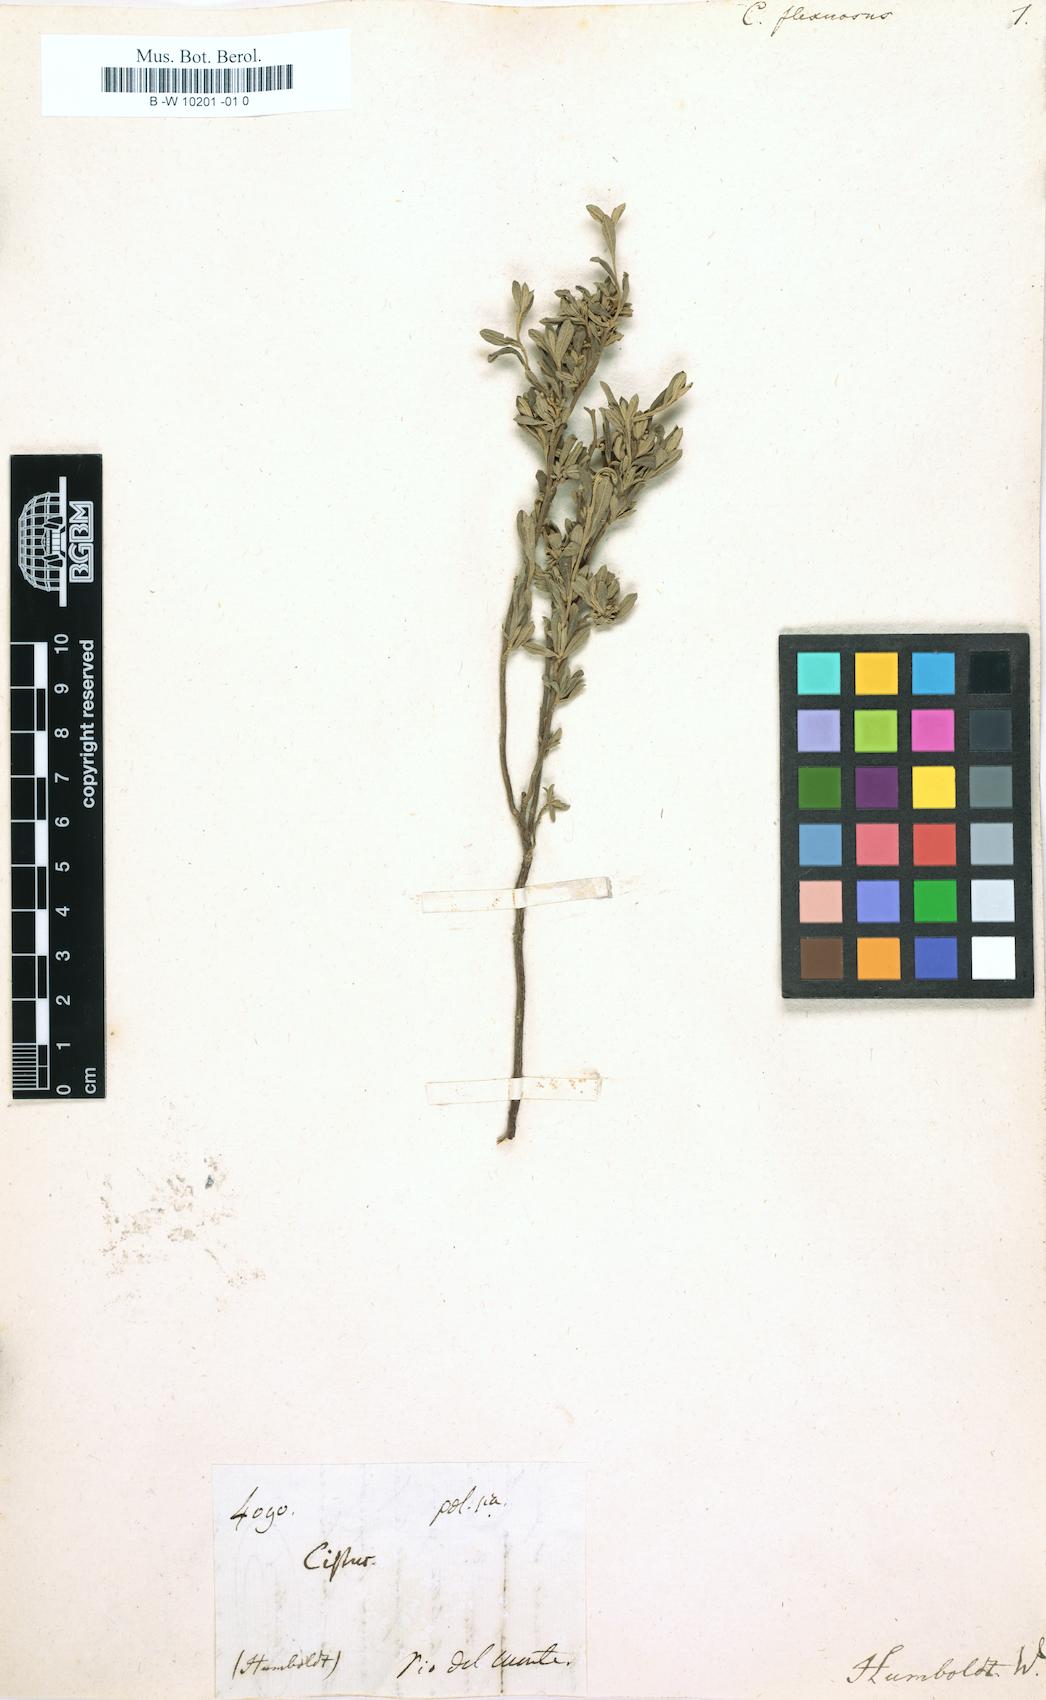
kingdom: Plantae
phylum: Tracheophyta
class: Magnoliopsida
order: Malvales
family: Cistaceae
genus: Helianthemum
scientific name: Helianthemum
